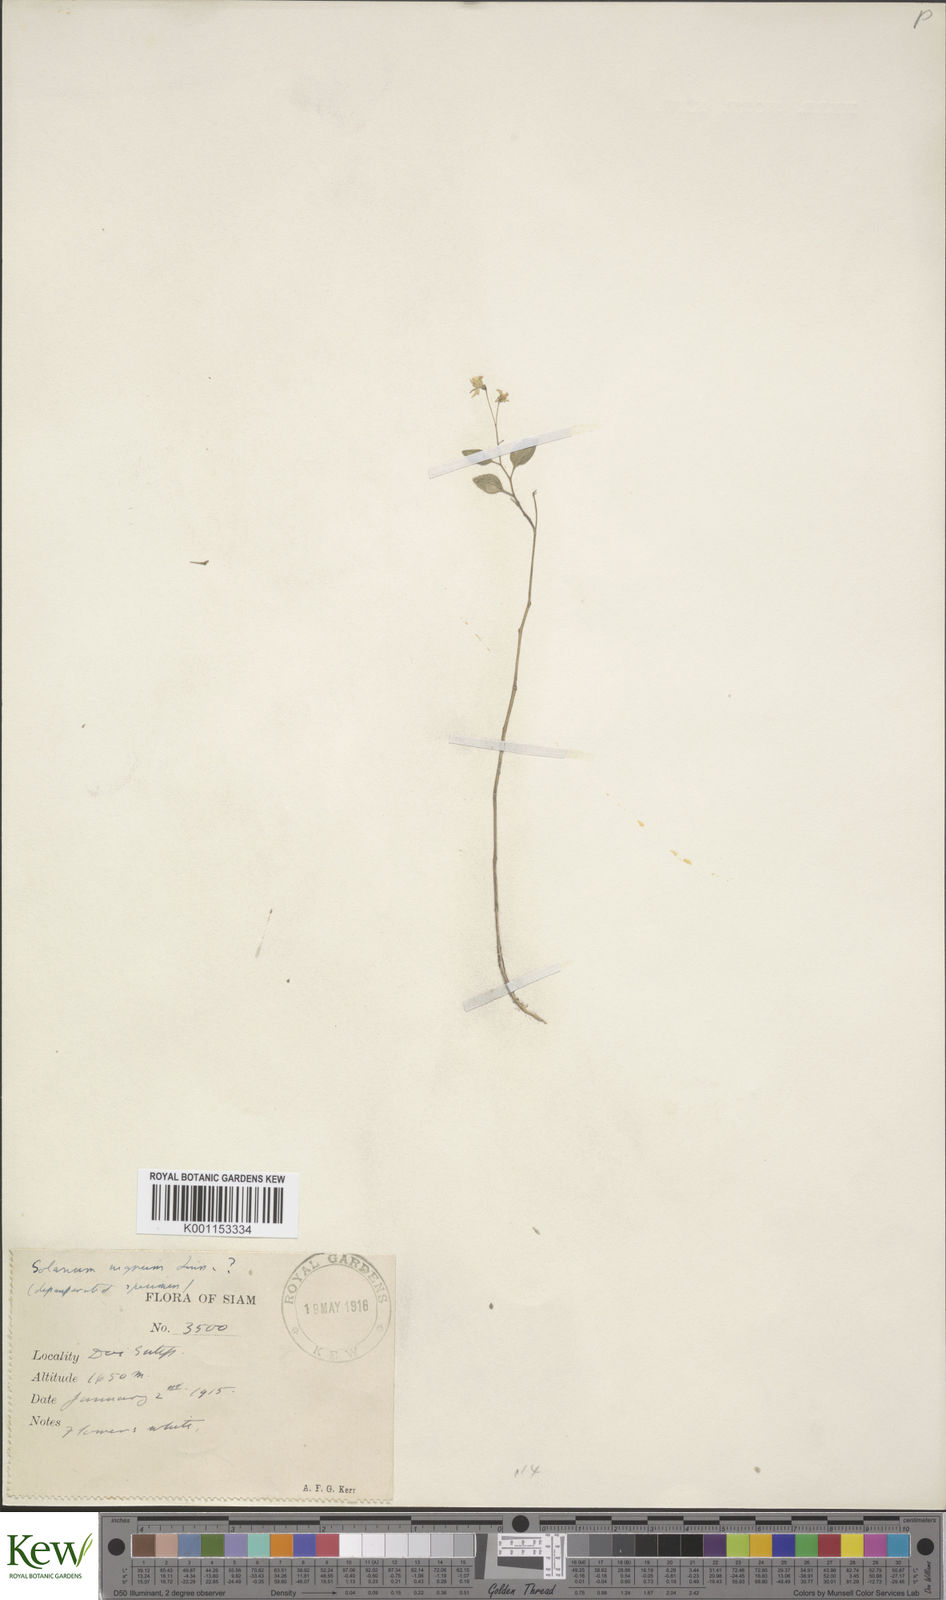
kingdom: Plantae
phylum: Tracheophyta
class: Magnoliopsida
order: Solanales
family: Solanaceae
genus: Solanum
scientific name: Solanum americanum
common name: American black nightshade
